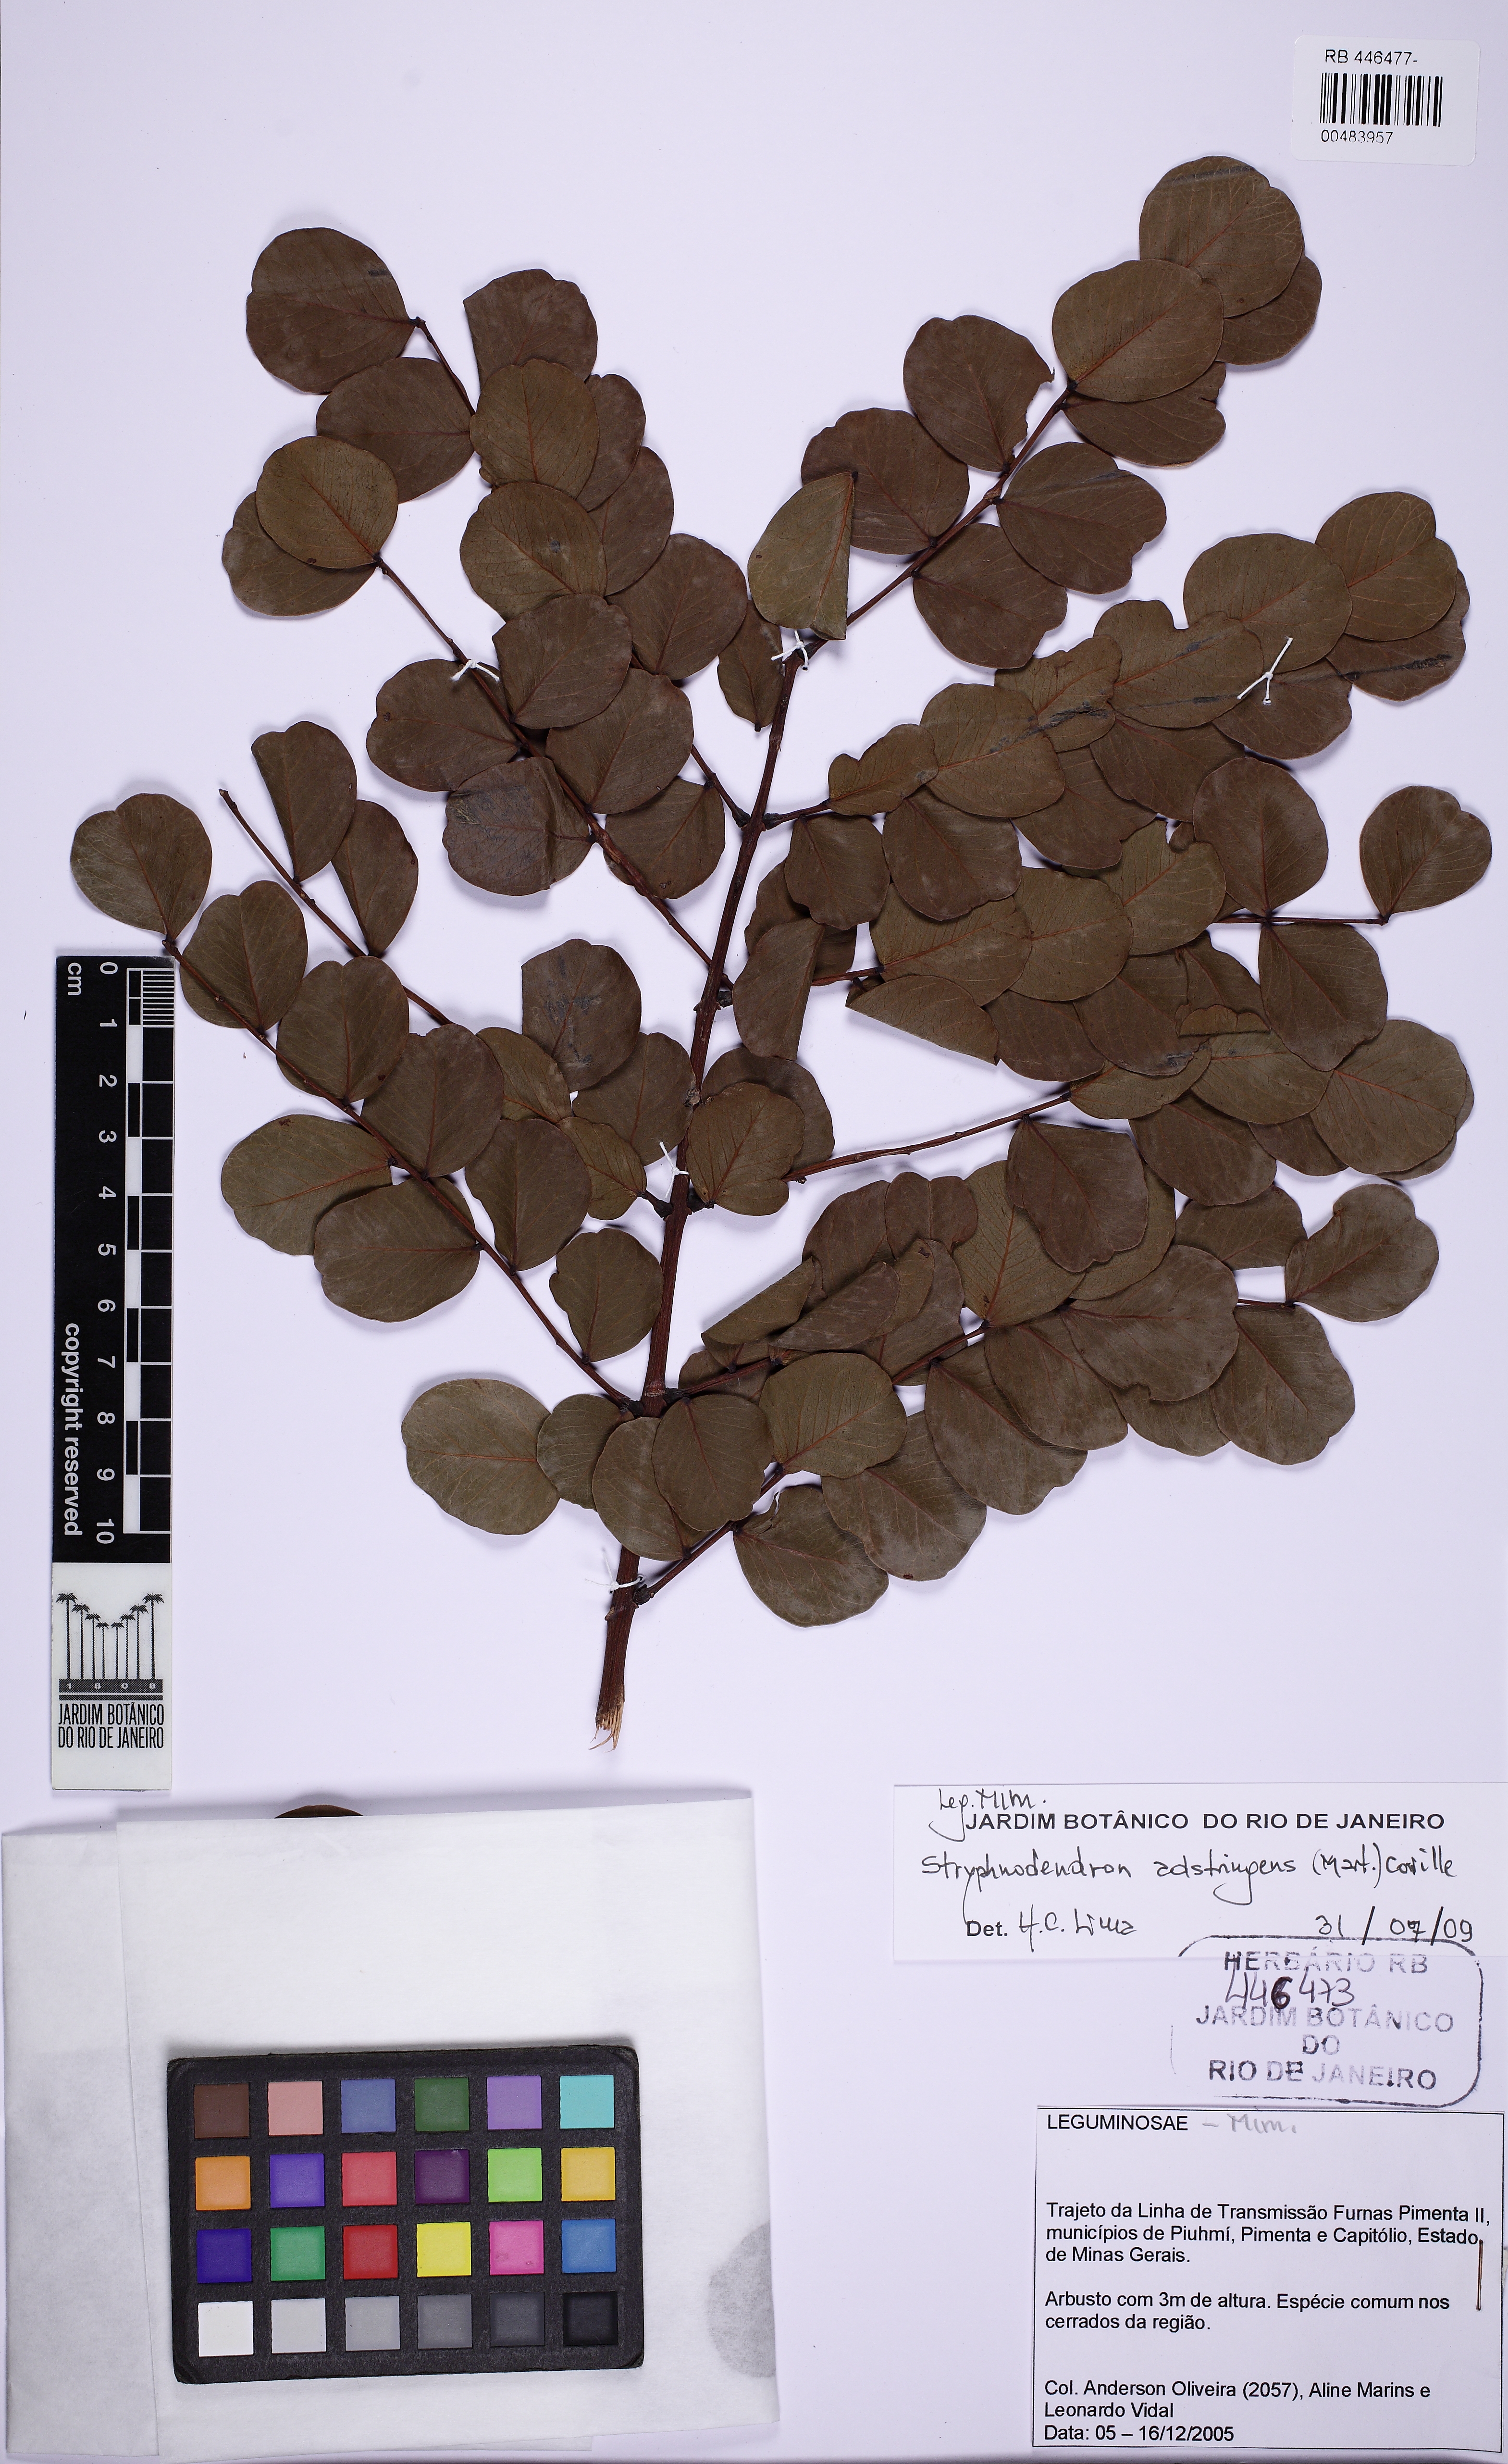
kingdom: Plantae
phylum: Tracheophyta
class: Magnoliopsida
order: Fabales
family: Fabaceae
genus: Stryphnodendron
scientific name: Stryphnodendron adstringens
